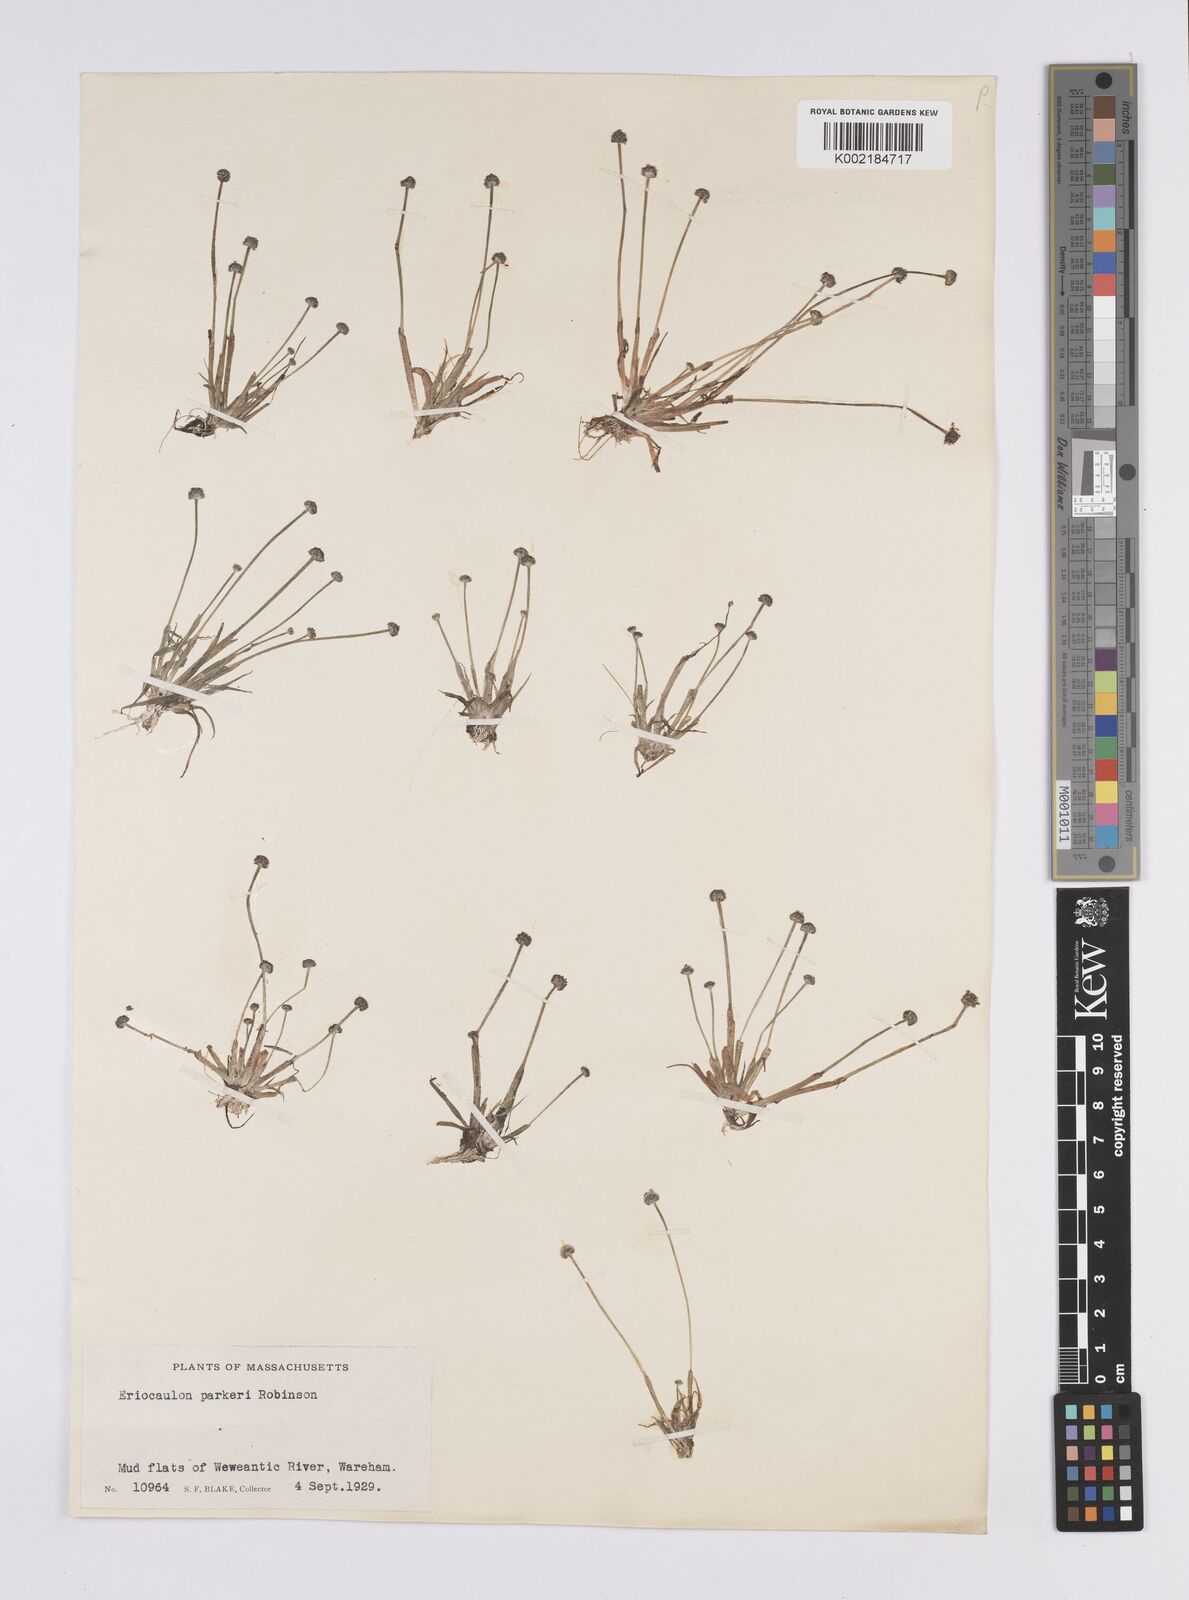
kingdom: Plantae
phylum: Tracheophyta
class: Liliopsida
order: Poales
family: Eriocaulaceae
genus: Eriocaulon
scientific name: Eriocaulon parkeri
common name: Parker's pipewort
